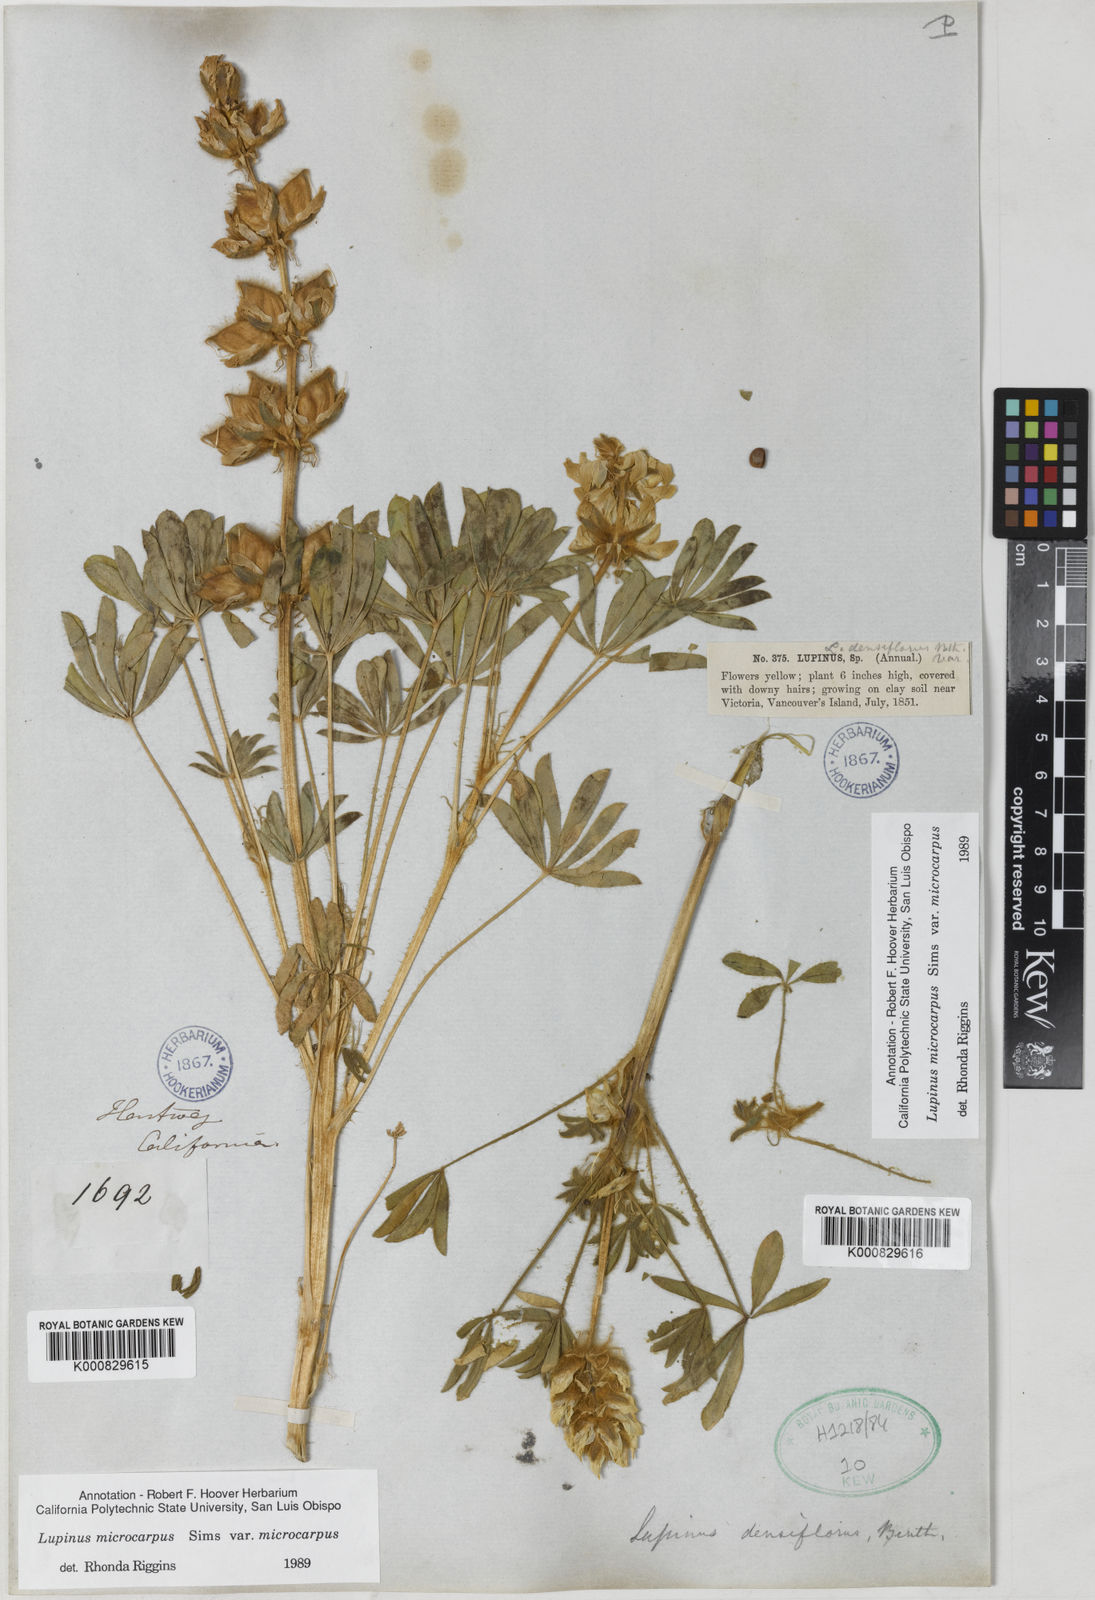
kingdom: Plantae
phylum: Tracheophyta
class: Magnoliopsida
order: Fabales
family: Fabaceae
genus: Lupinus
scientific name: Lupinus densiflorus
